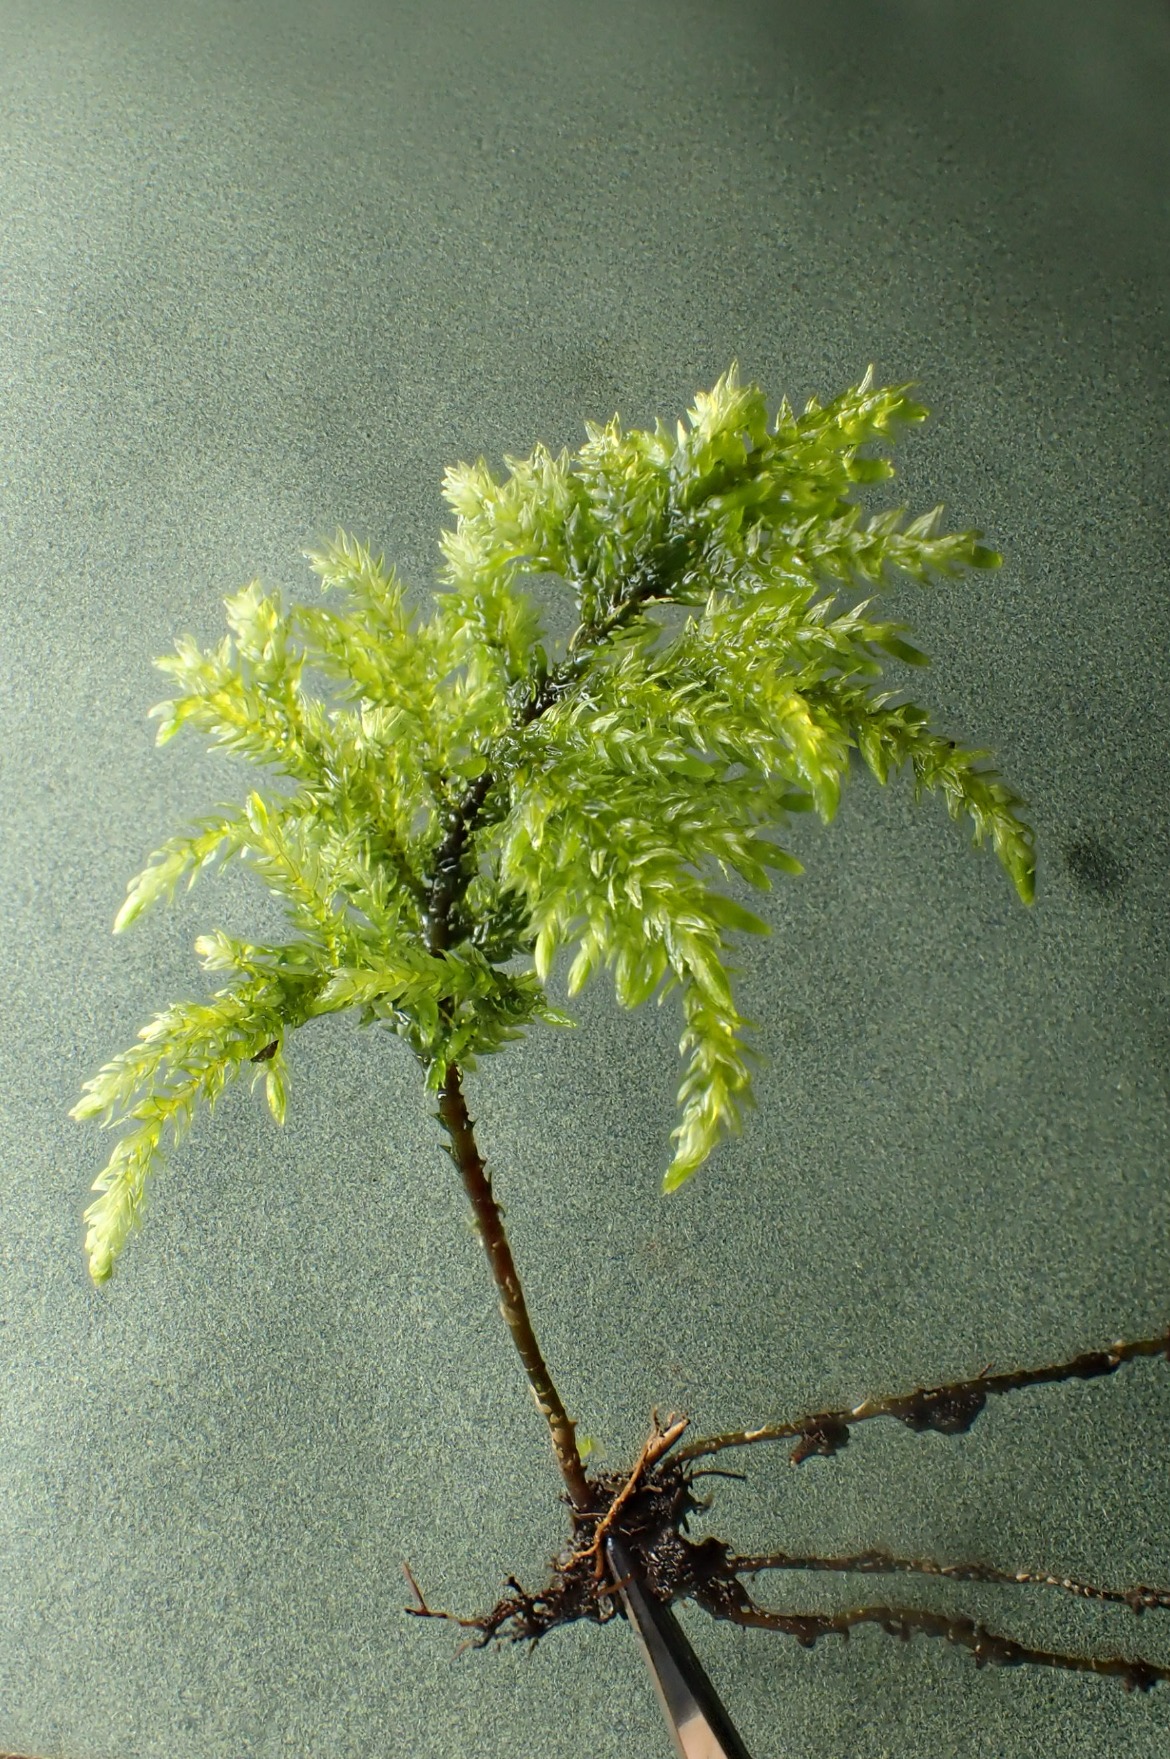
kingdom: Plantae
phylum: Bryophyta
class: Bryopsida
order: Hypnales
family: Neckeraceae
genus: Thamnobryum
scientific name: Thamnobryum alopecurum
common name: Mat bækkost
